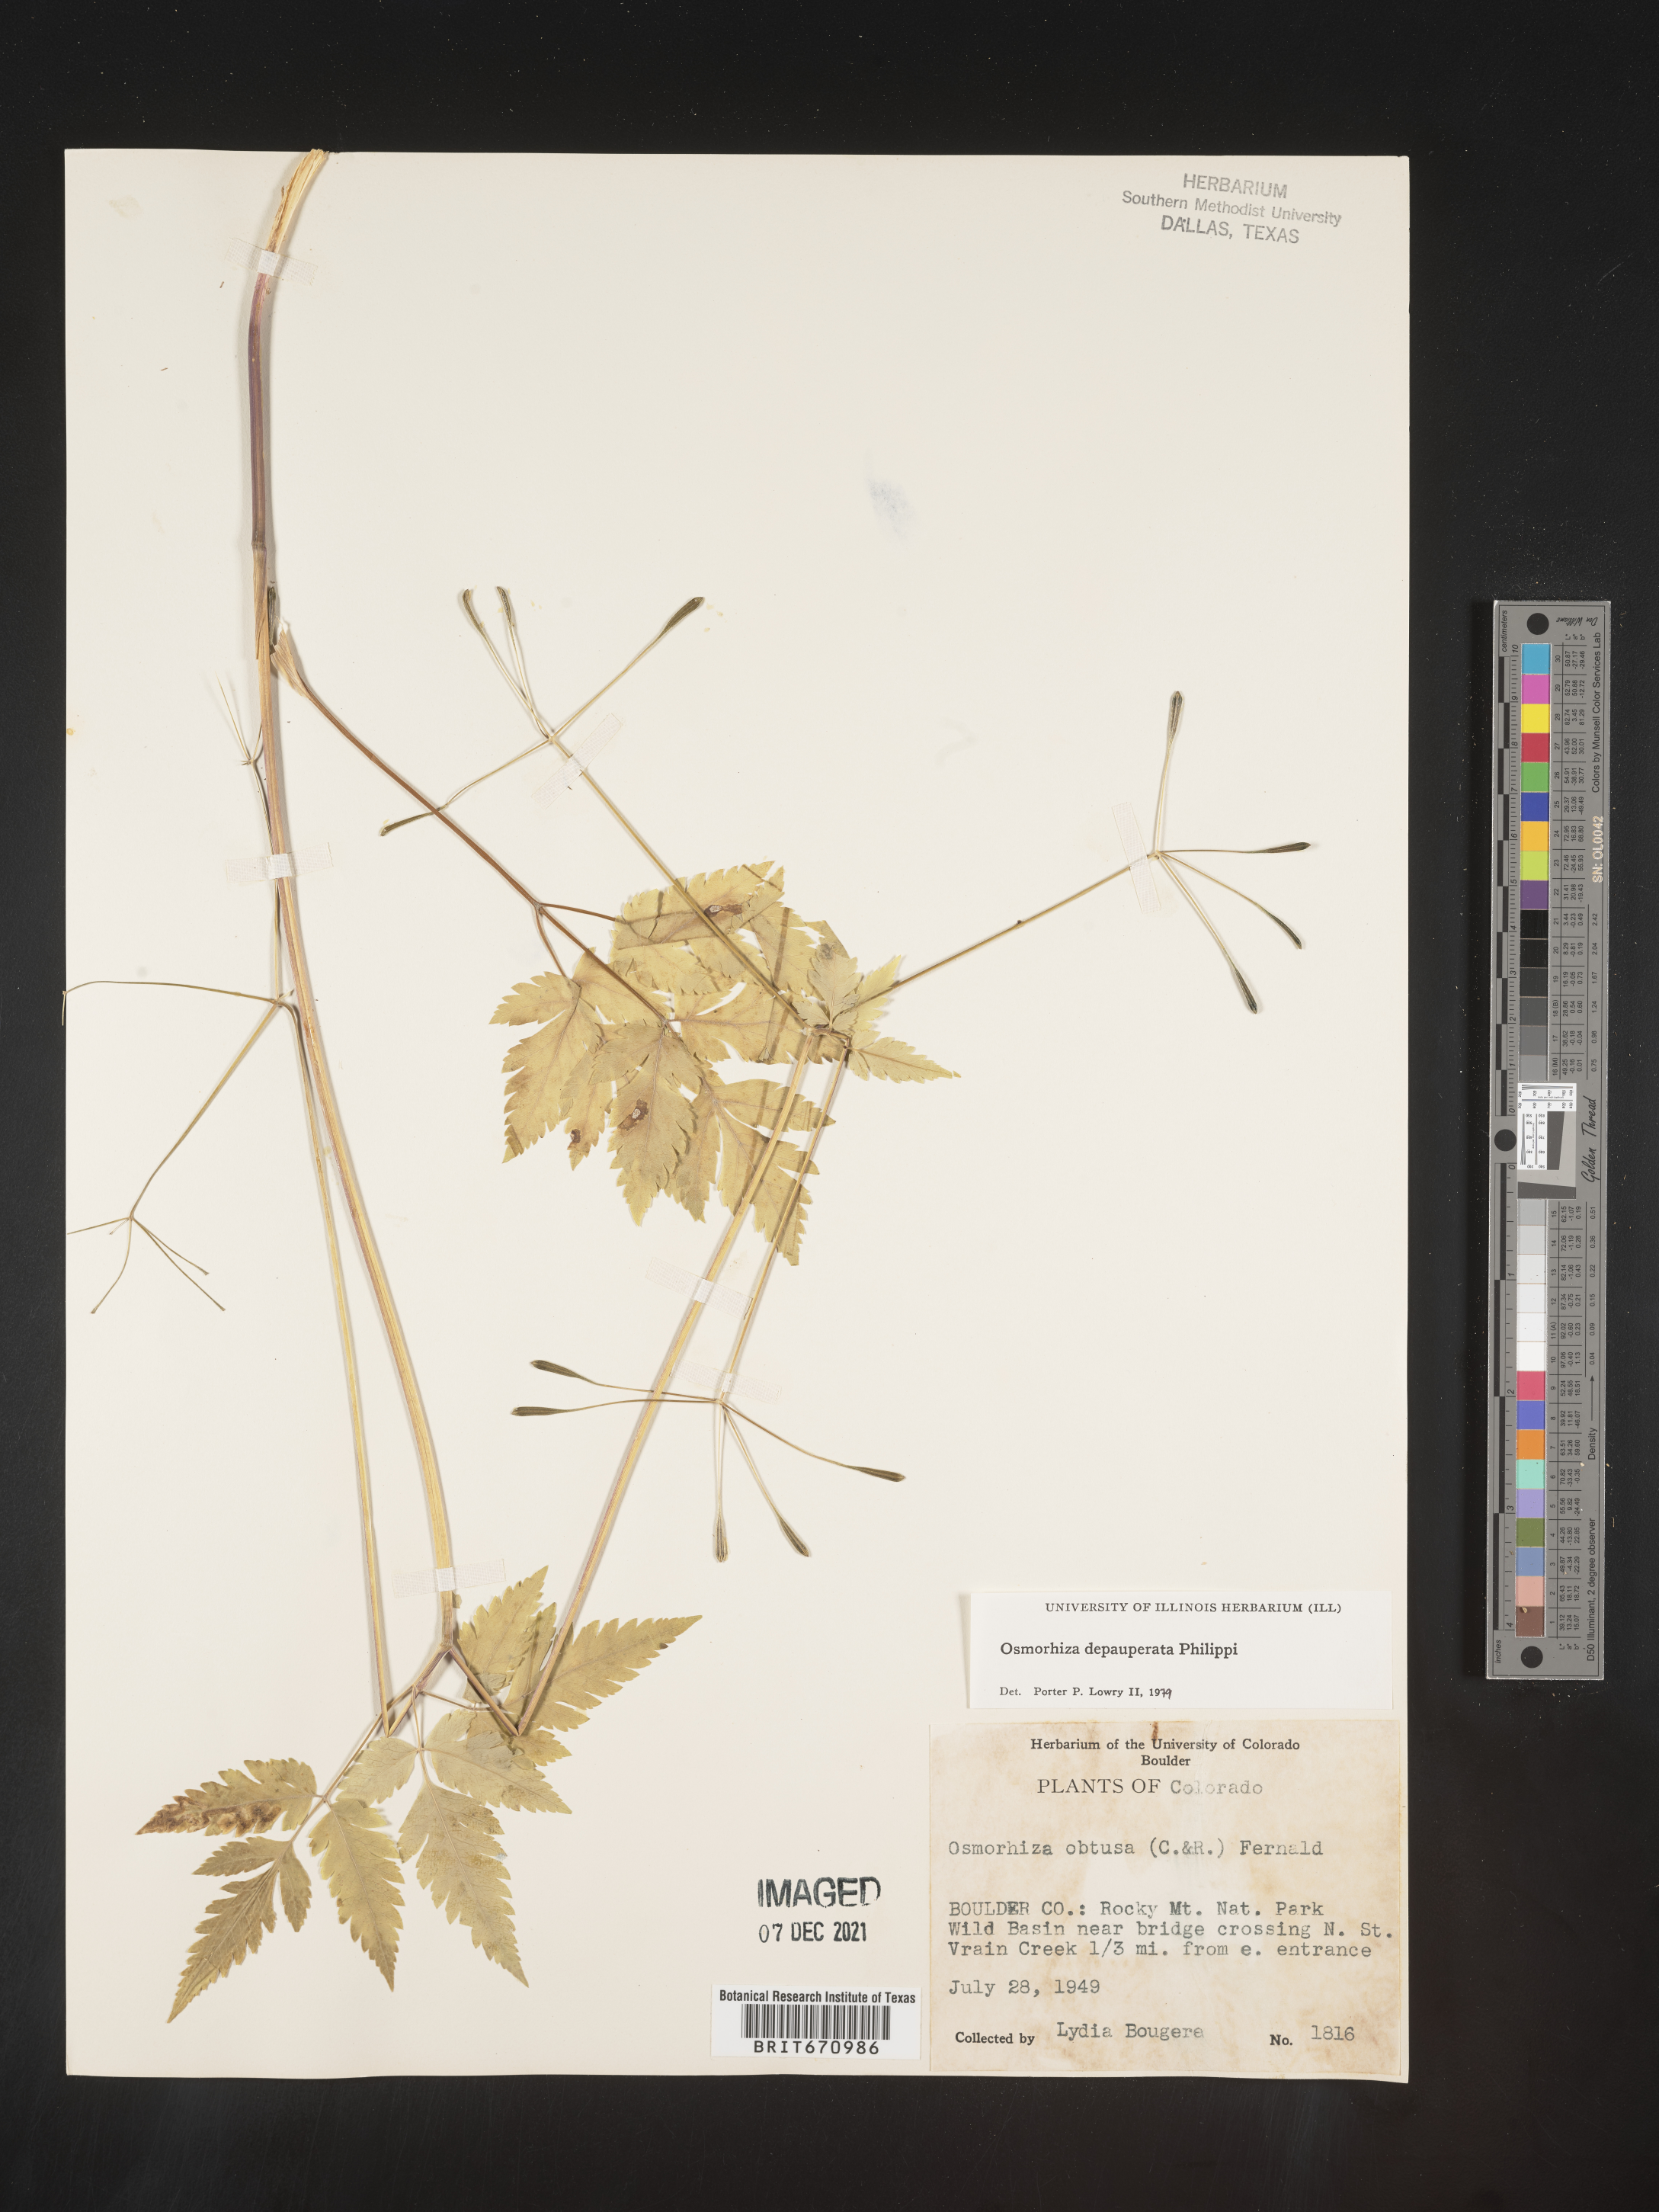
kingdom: Plantae
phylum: Tracheophyta
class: Magnoliopsida
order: Apiales
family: Apiaceae
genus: Osmorhiza
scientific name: Osmorhiza depauperata
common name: Blunt sweet cicely
